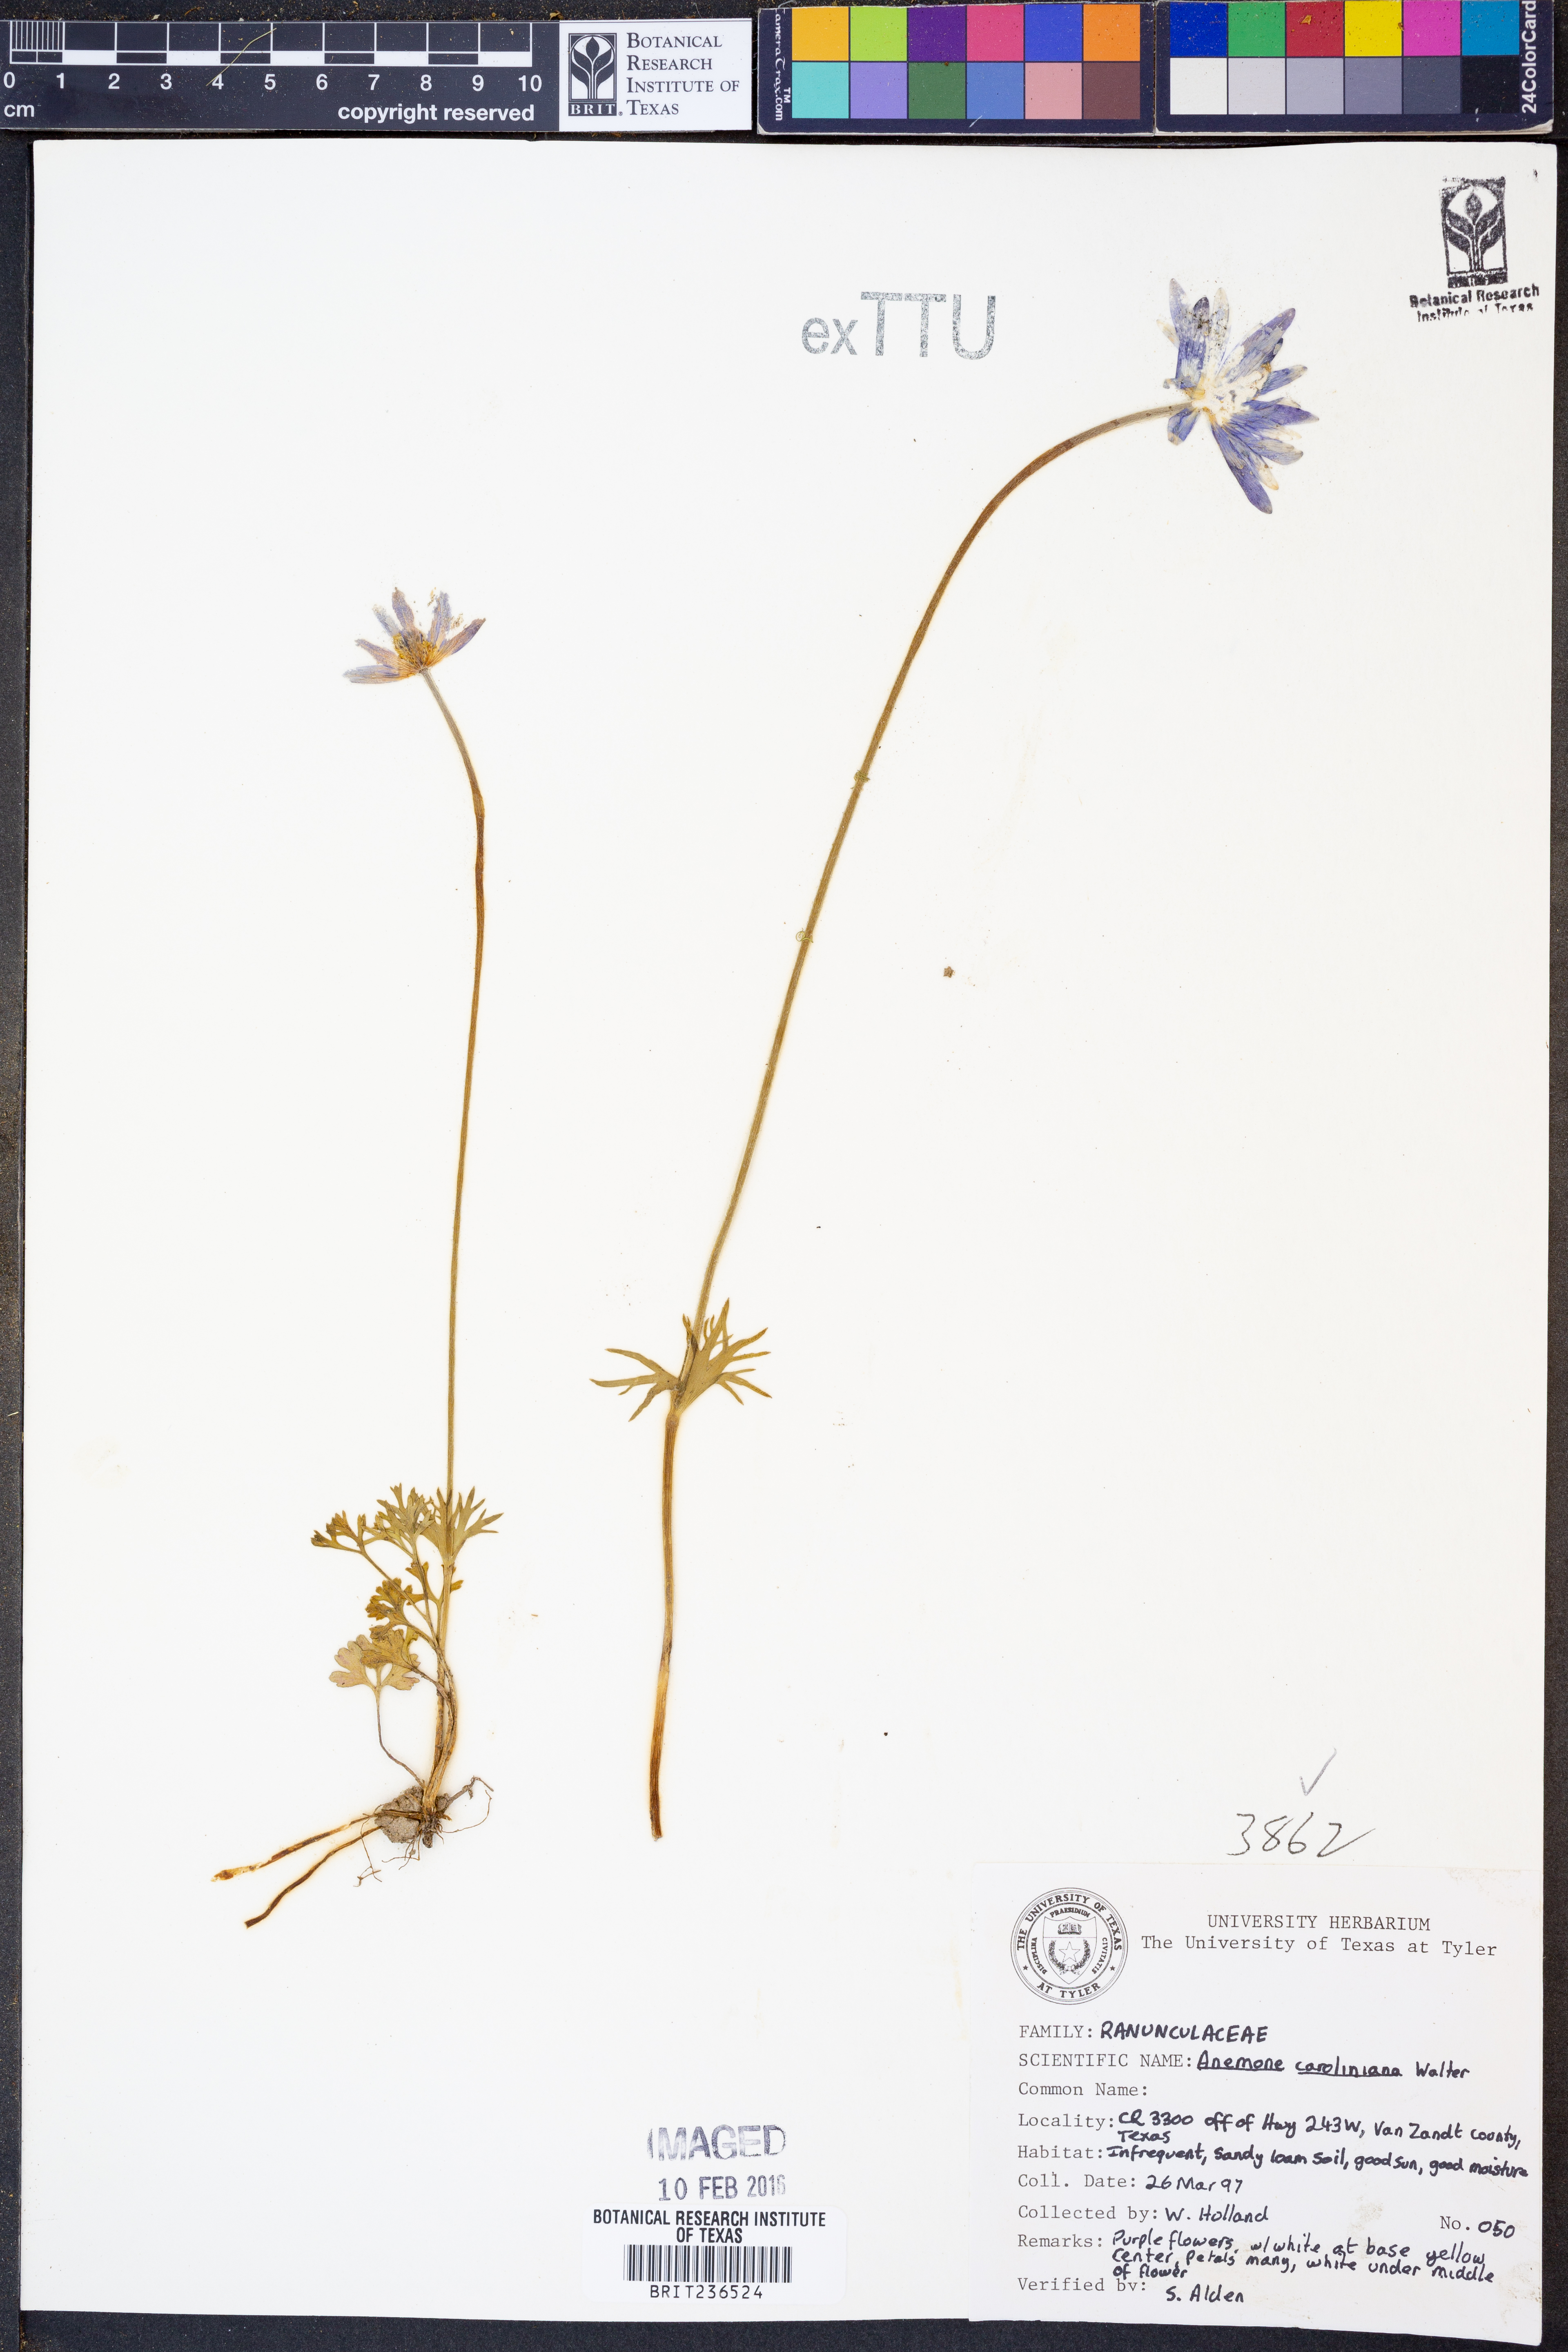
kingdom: Plantae
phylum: Tracheophyta
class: Magnoliopsida
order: Ranunculales
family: Ranunculaceae
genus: Anemone
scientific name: Anemone caroliniana
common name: Carolina anemone
